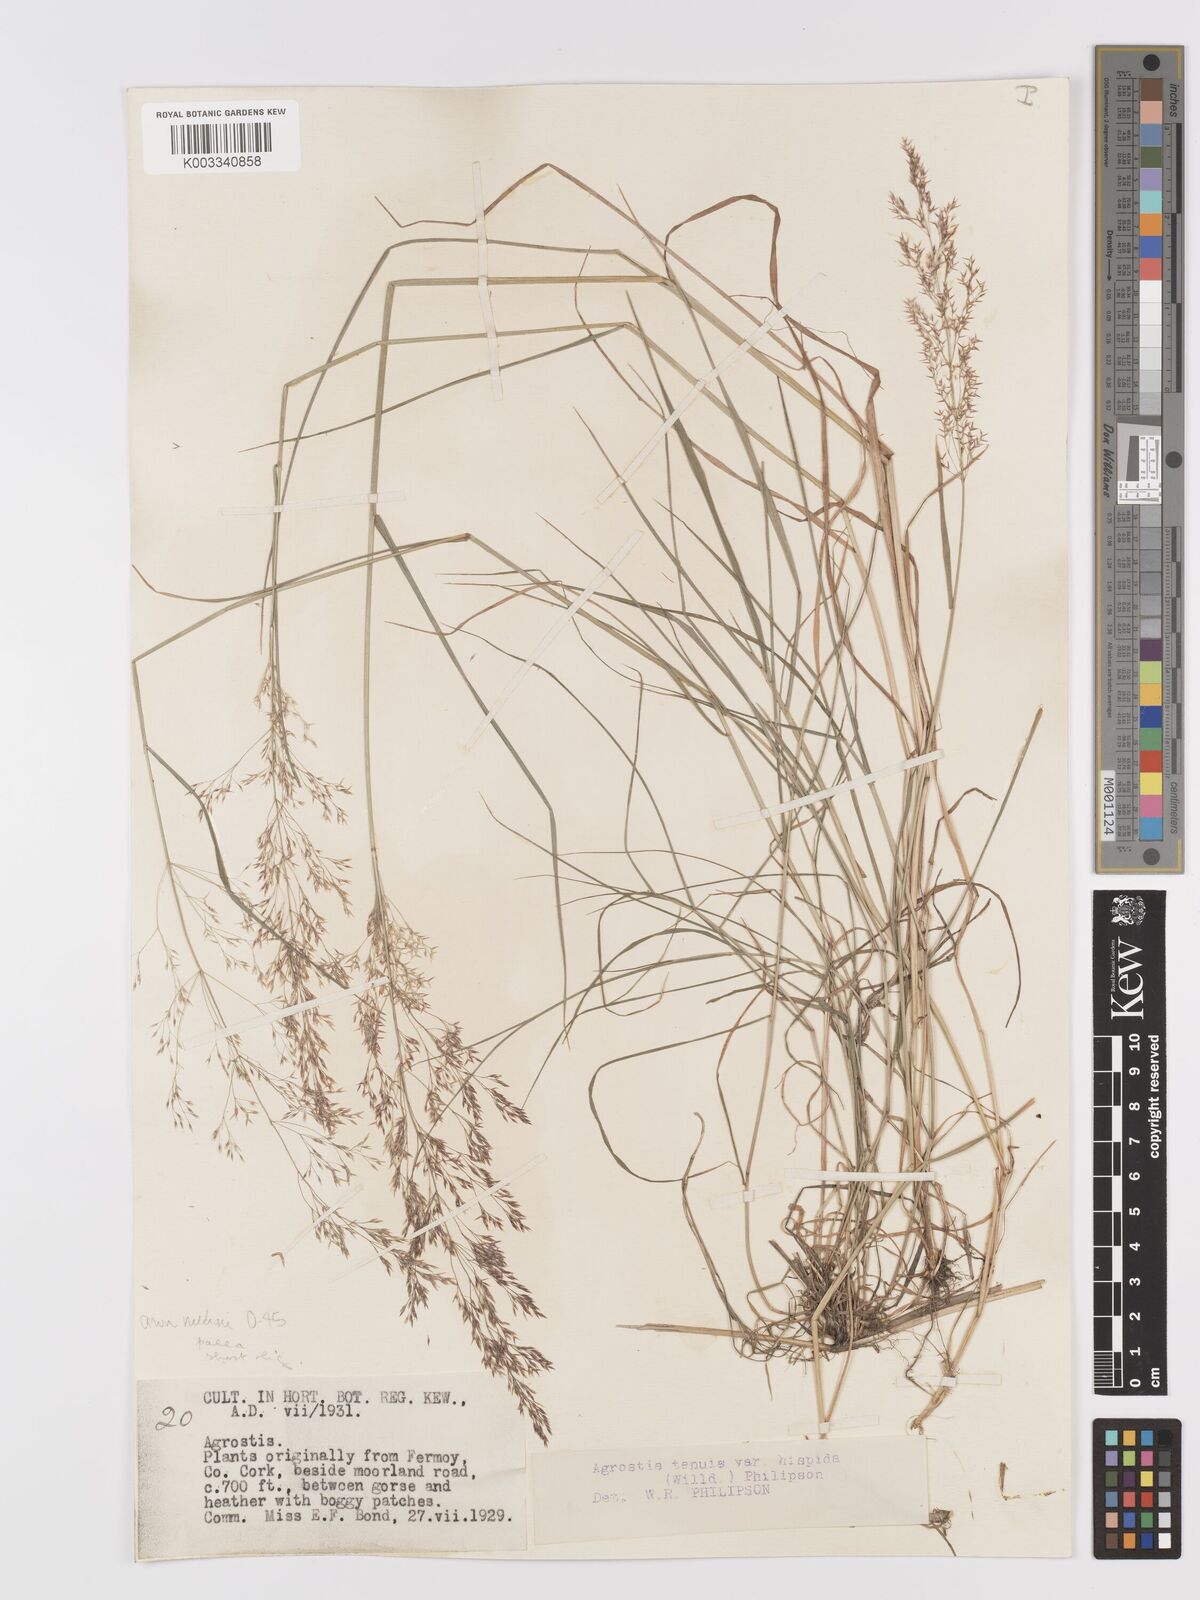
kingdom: Plantae
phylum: Tracheophyta
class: Liliopsida
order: Poales
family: Poaceae
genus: Agrostis
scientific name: Agrostis capillaris
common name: Colonial bentgrass
